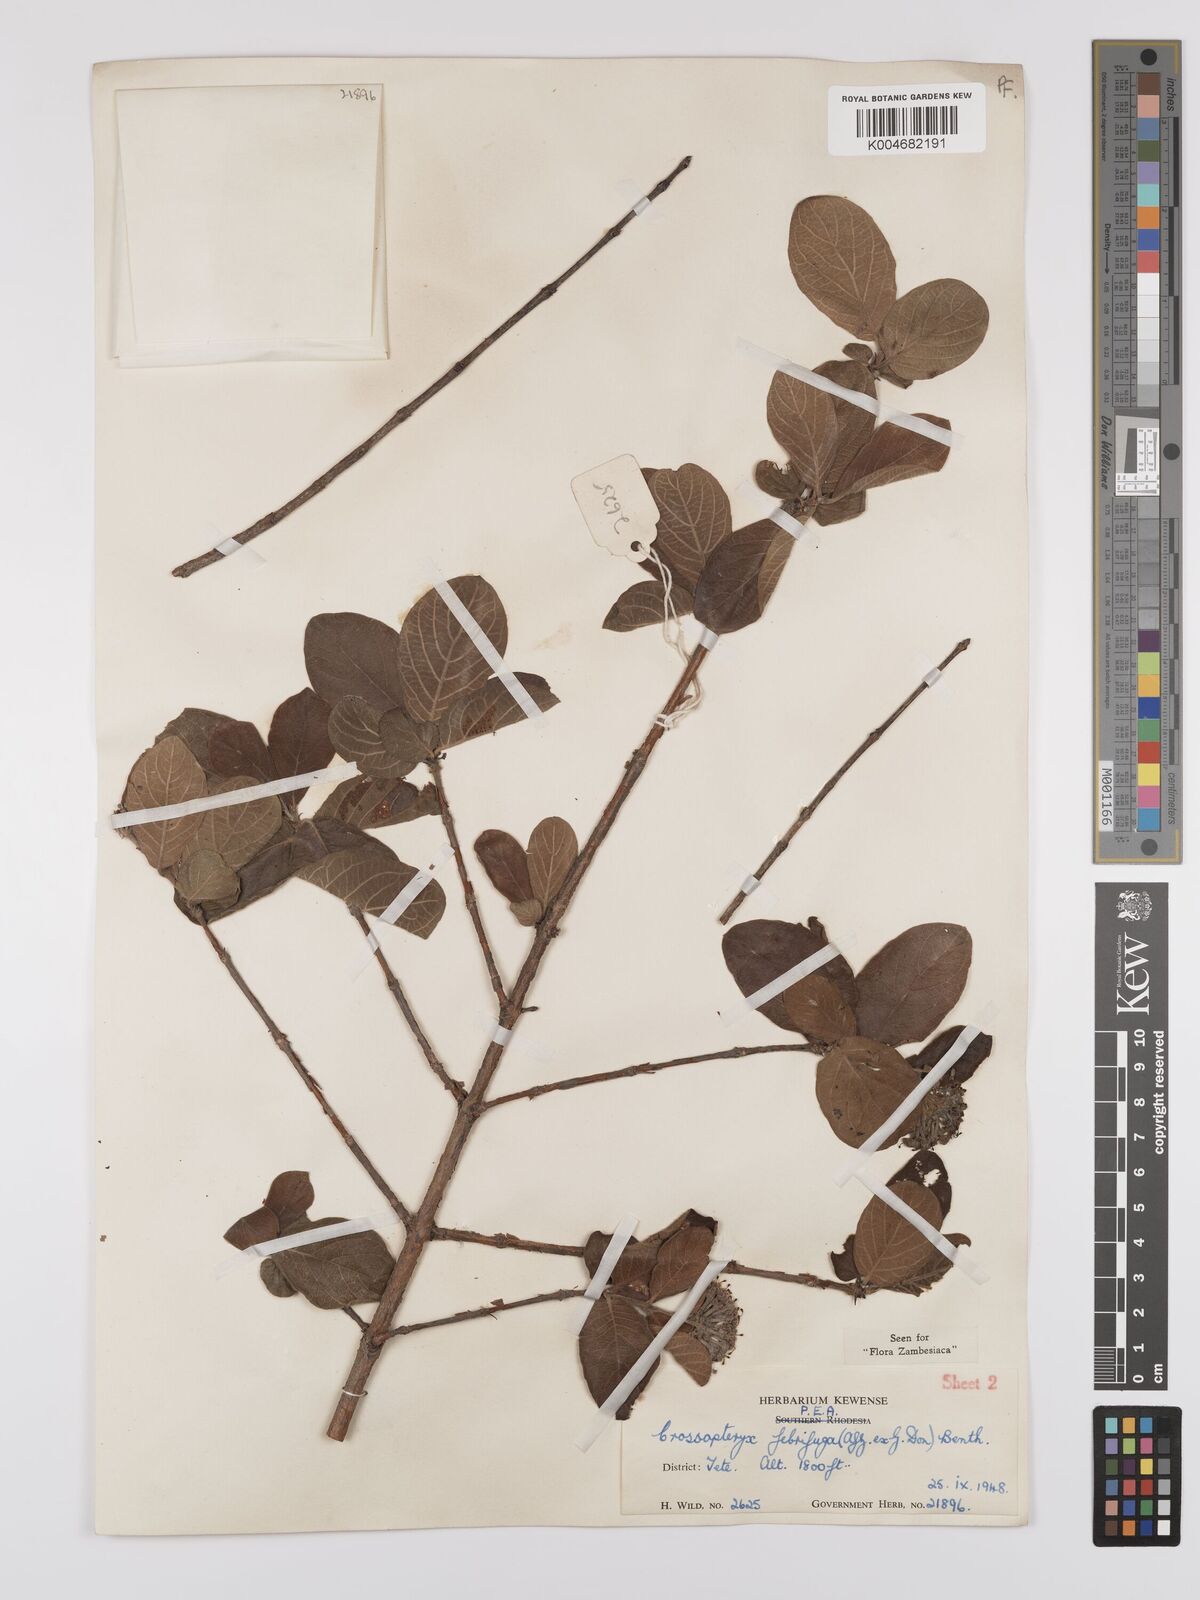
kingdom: Plantae
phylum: Tracheophyta
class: Magnoliopsida
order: Gentianales
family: Rubiaceae
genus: Crossopteryx
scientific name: Crossopteryx febrifuga
